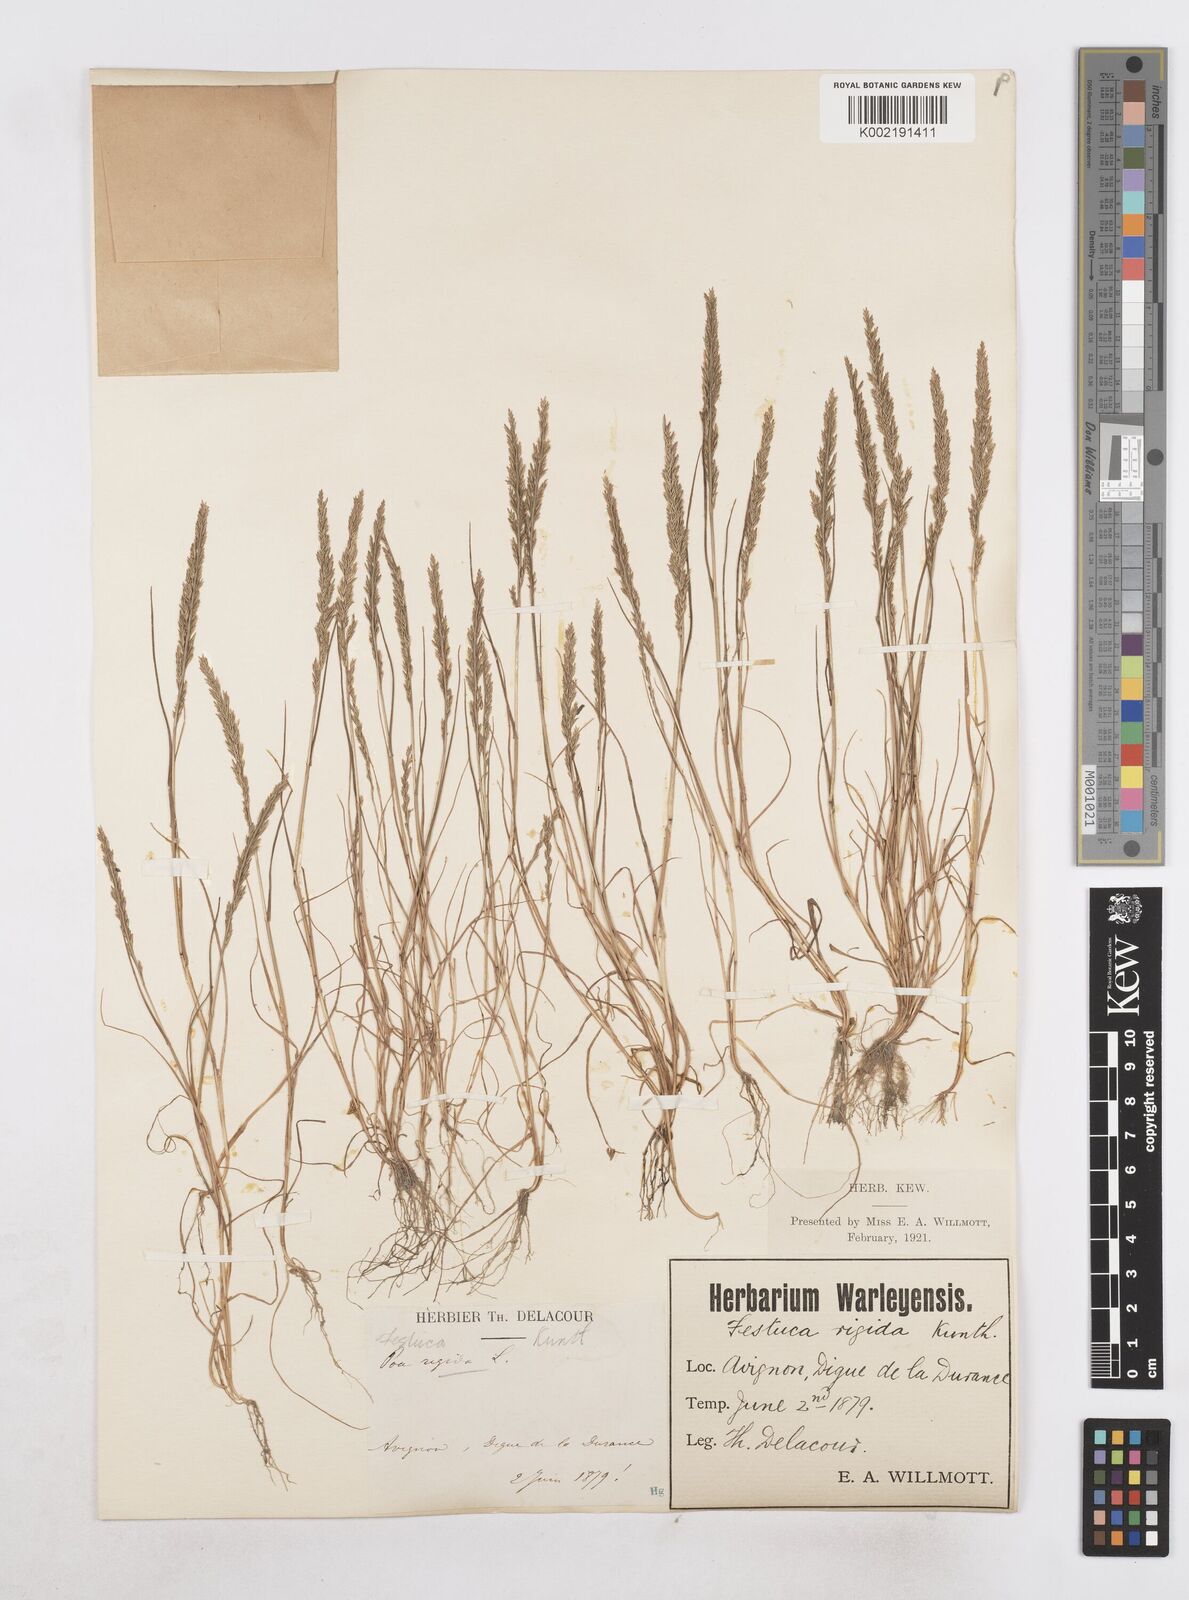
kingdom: Plantae
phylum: Tracheophyta
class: Liliopsida
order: Poales
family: Poaceae
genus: Catapodium
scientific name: Catapodium rigidum
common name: Fern-grass
